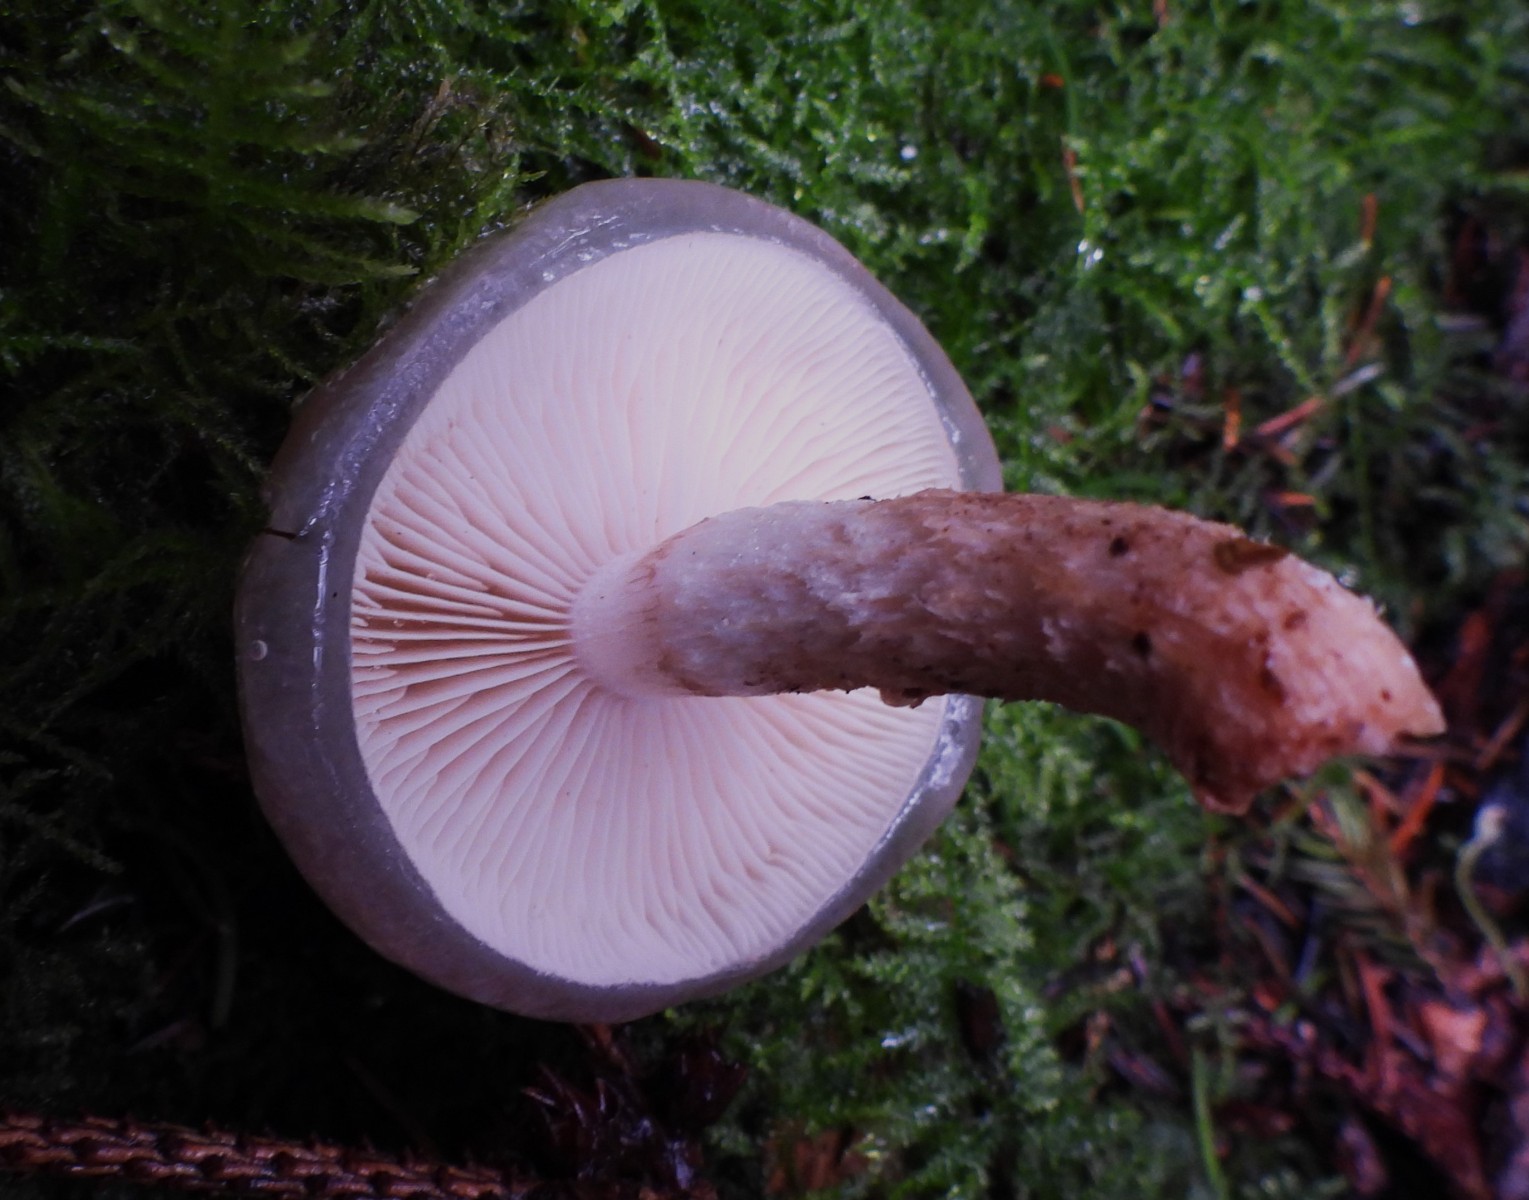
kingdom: Fungi
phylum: Basidiomycota
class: Agaricomycetes
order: Agaricales
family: Strophariaceae
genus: Pholiota
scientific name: Pholiota lenta
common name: løv-skælhat
